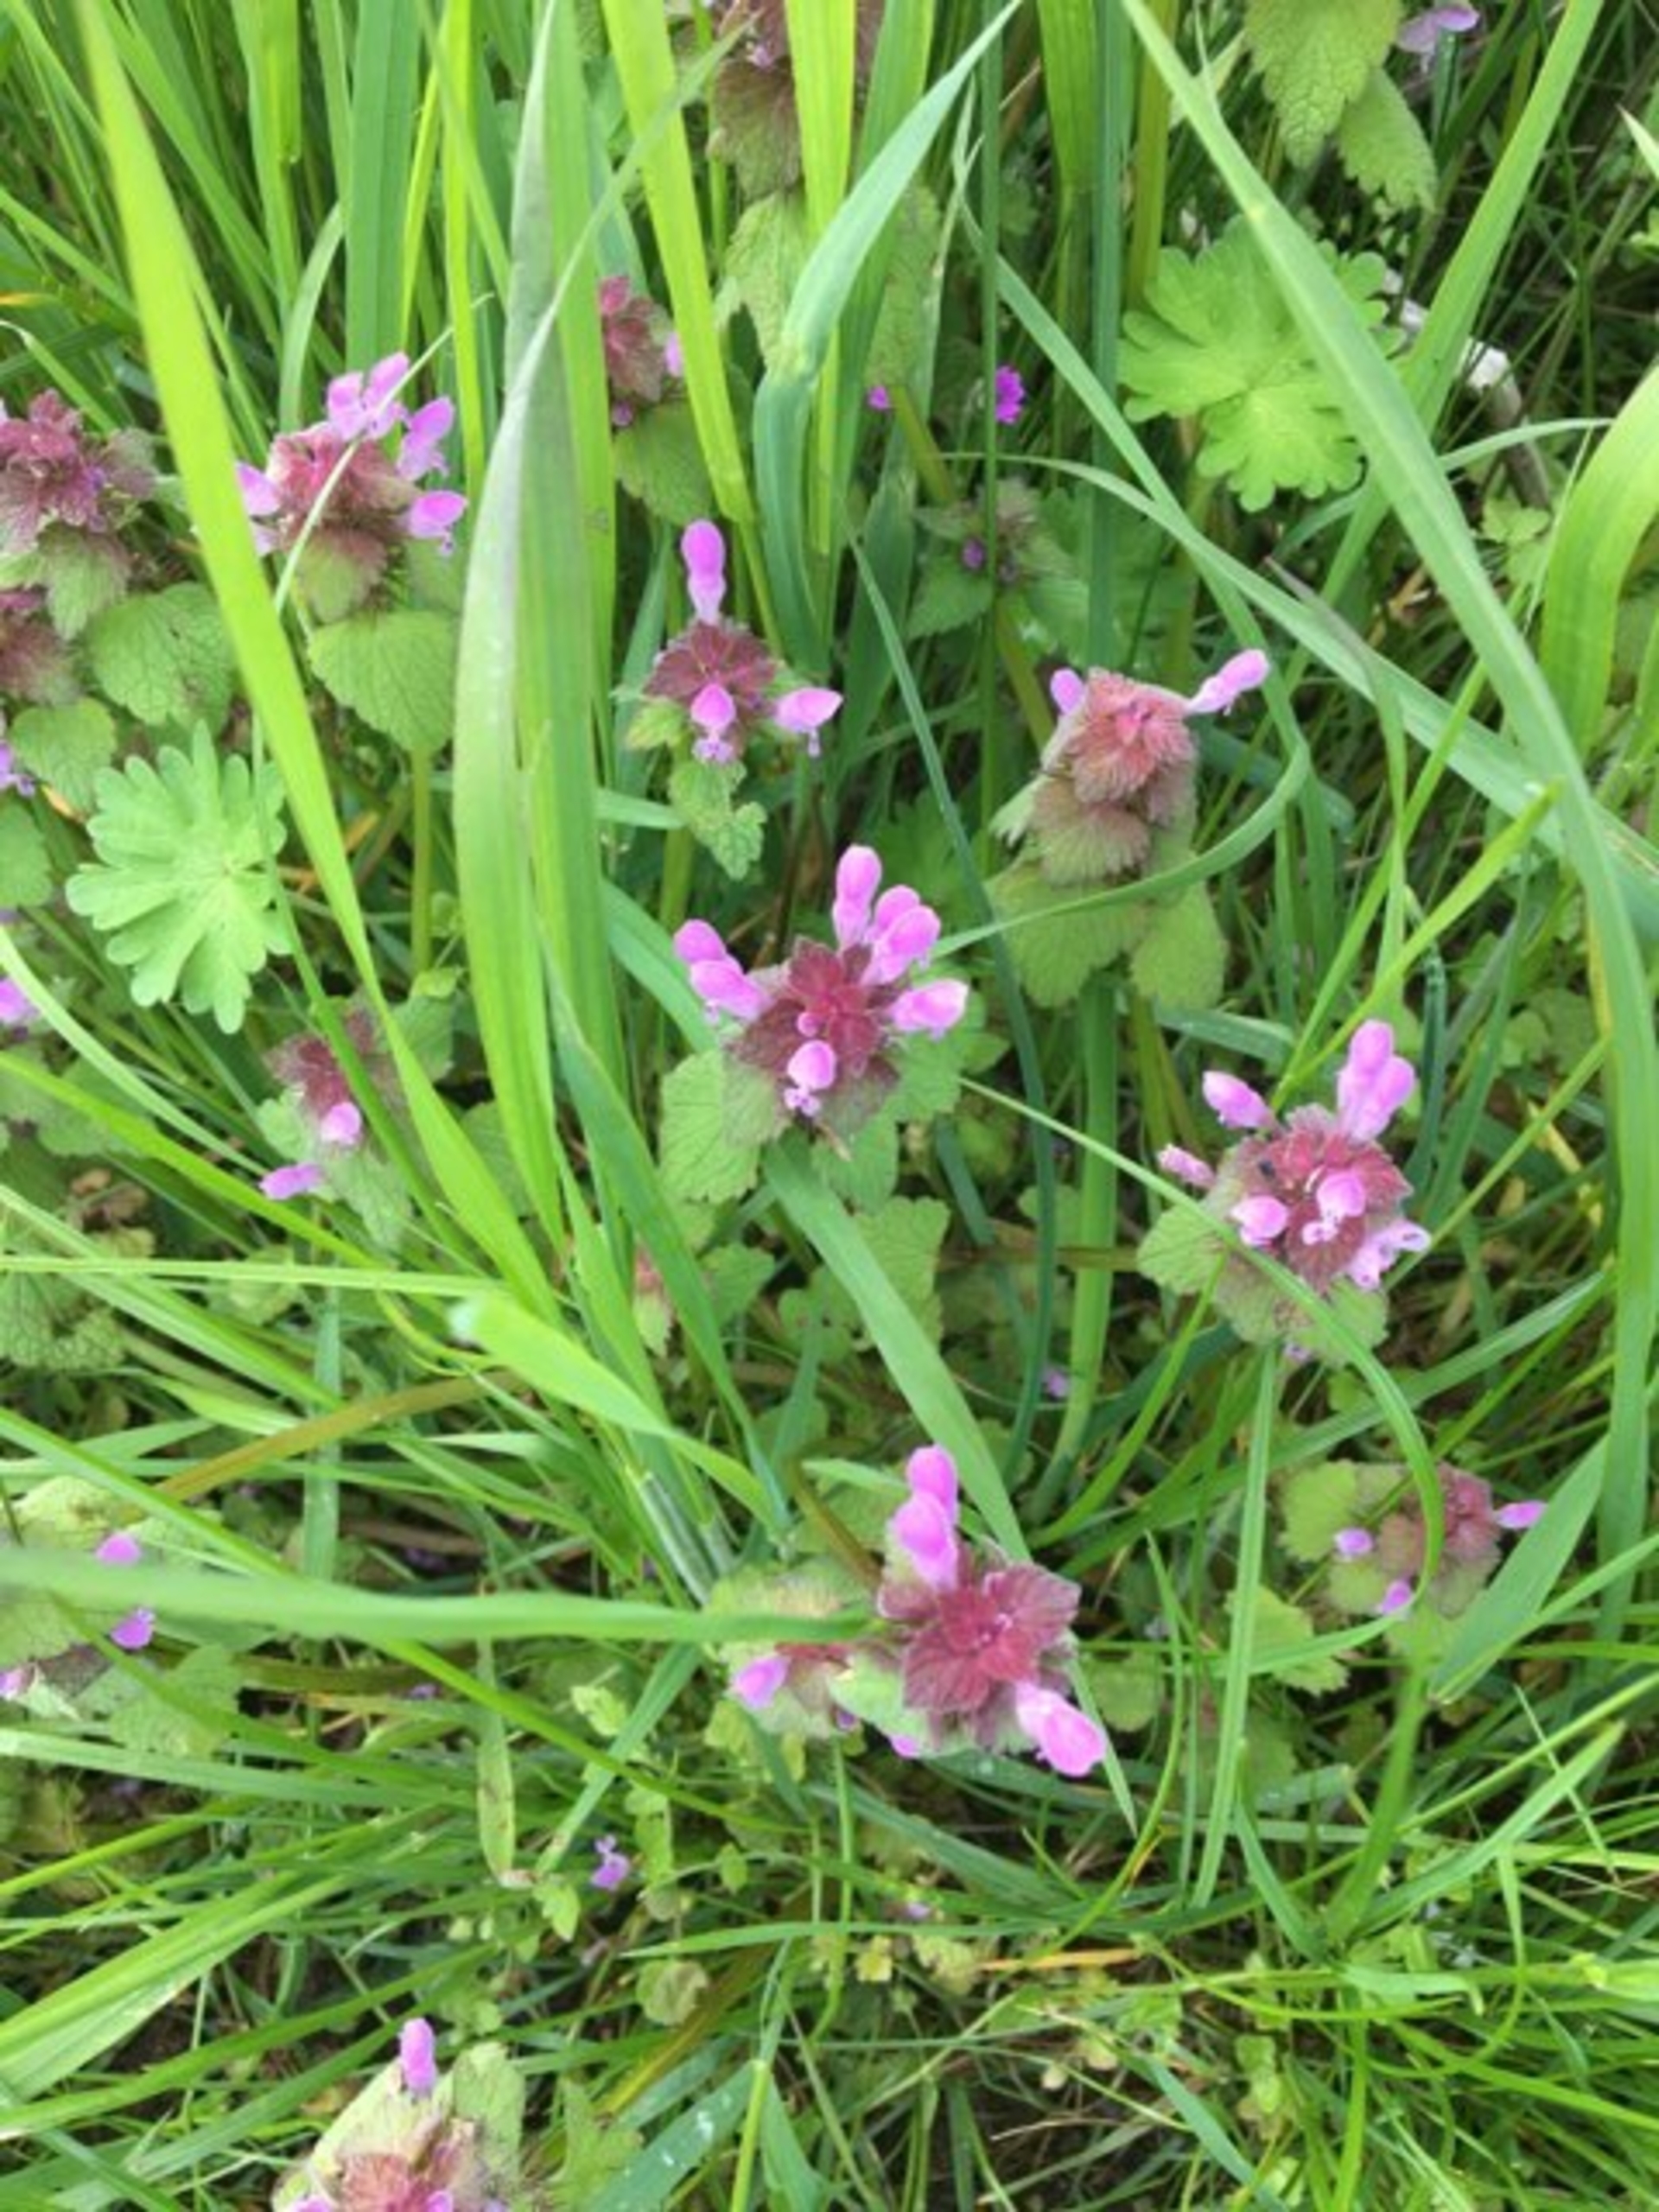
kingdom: Plantae
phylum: Tracheophyta
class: Magnoliopsida
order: Lamiales
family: Lamiaceae
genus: Lamium
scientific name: Lamium purpureum
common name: Rød tvetand
